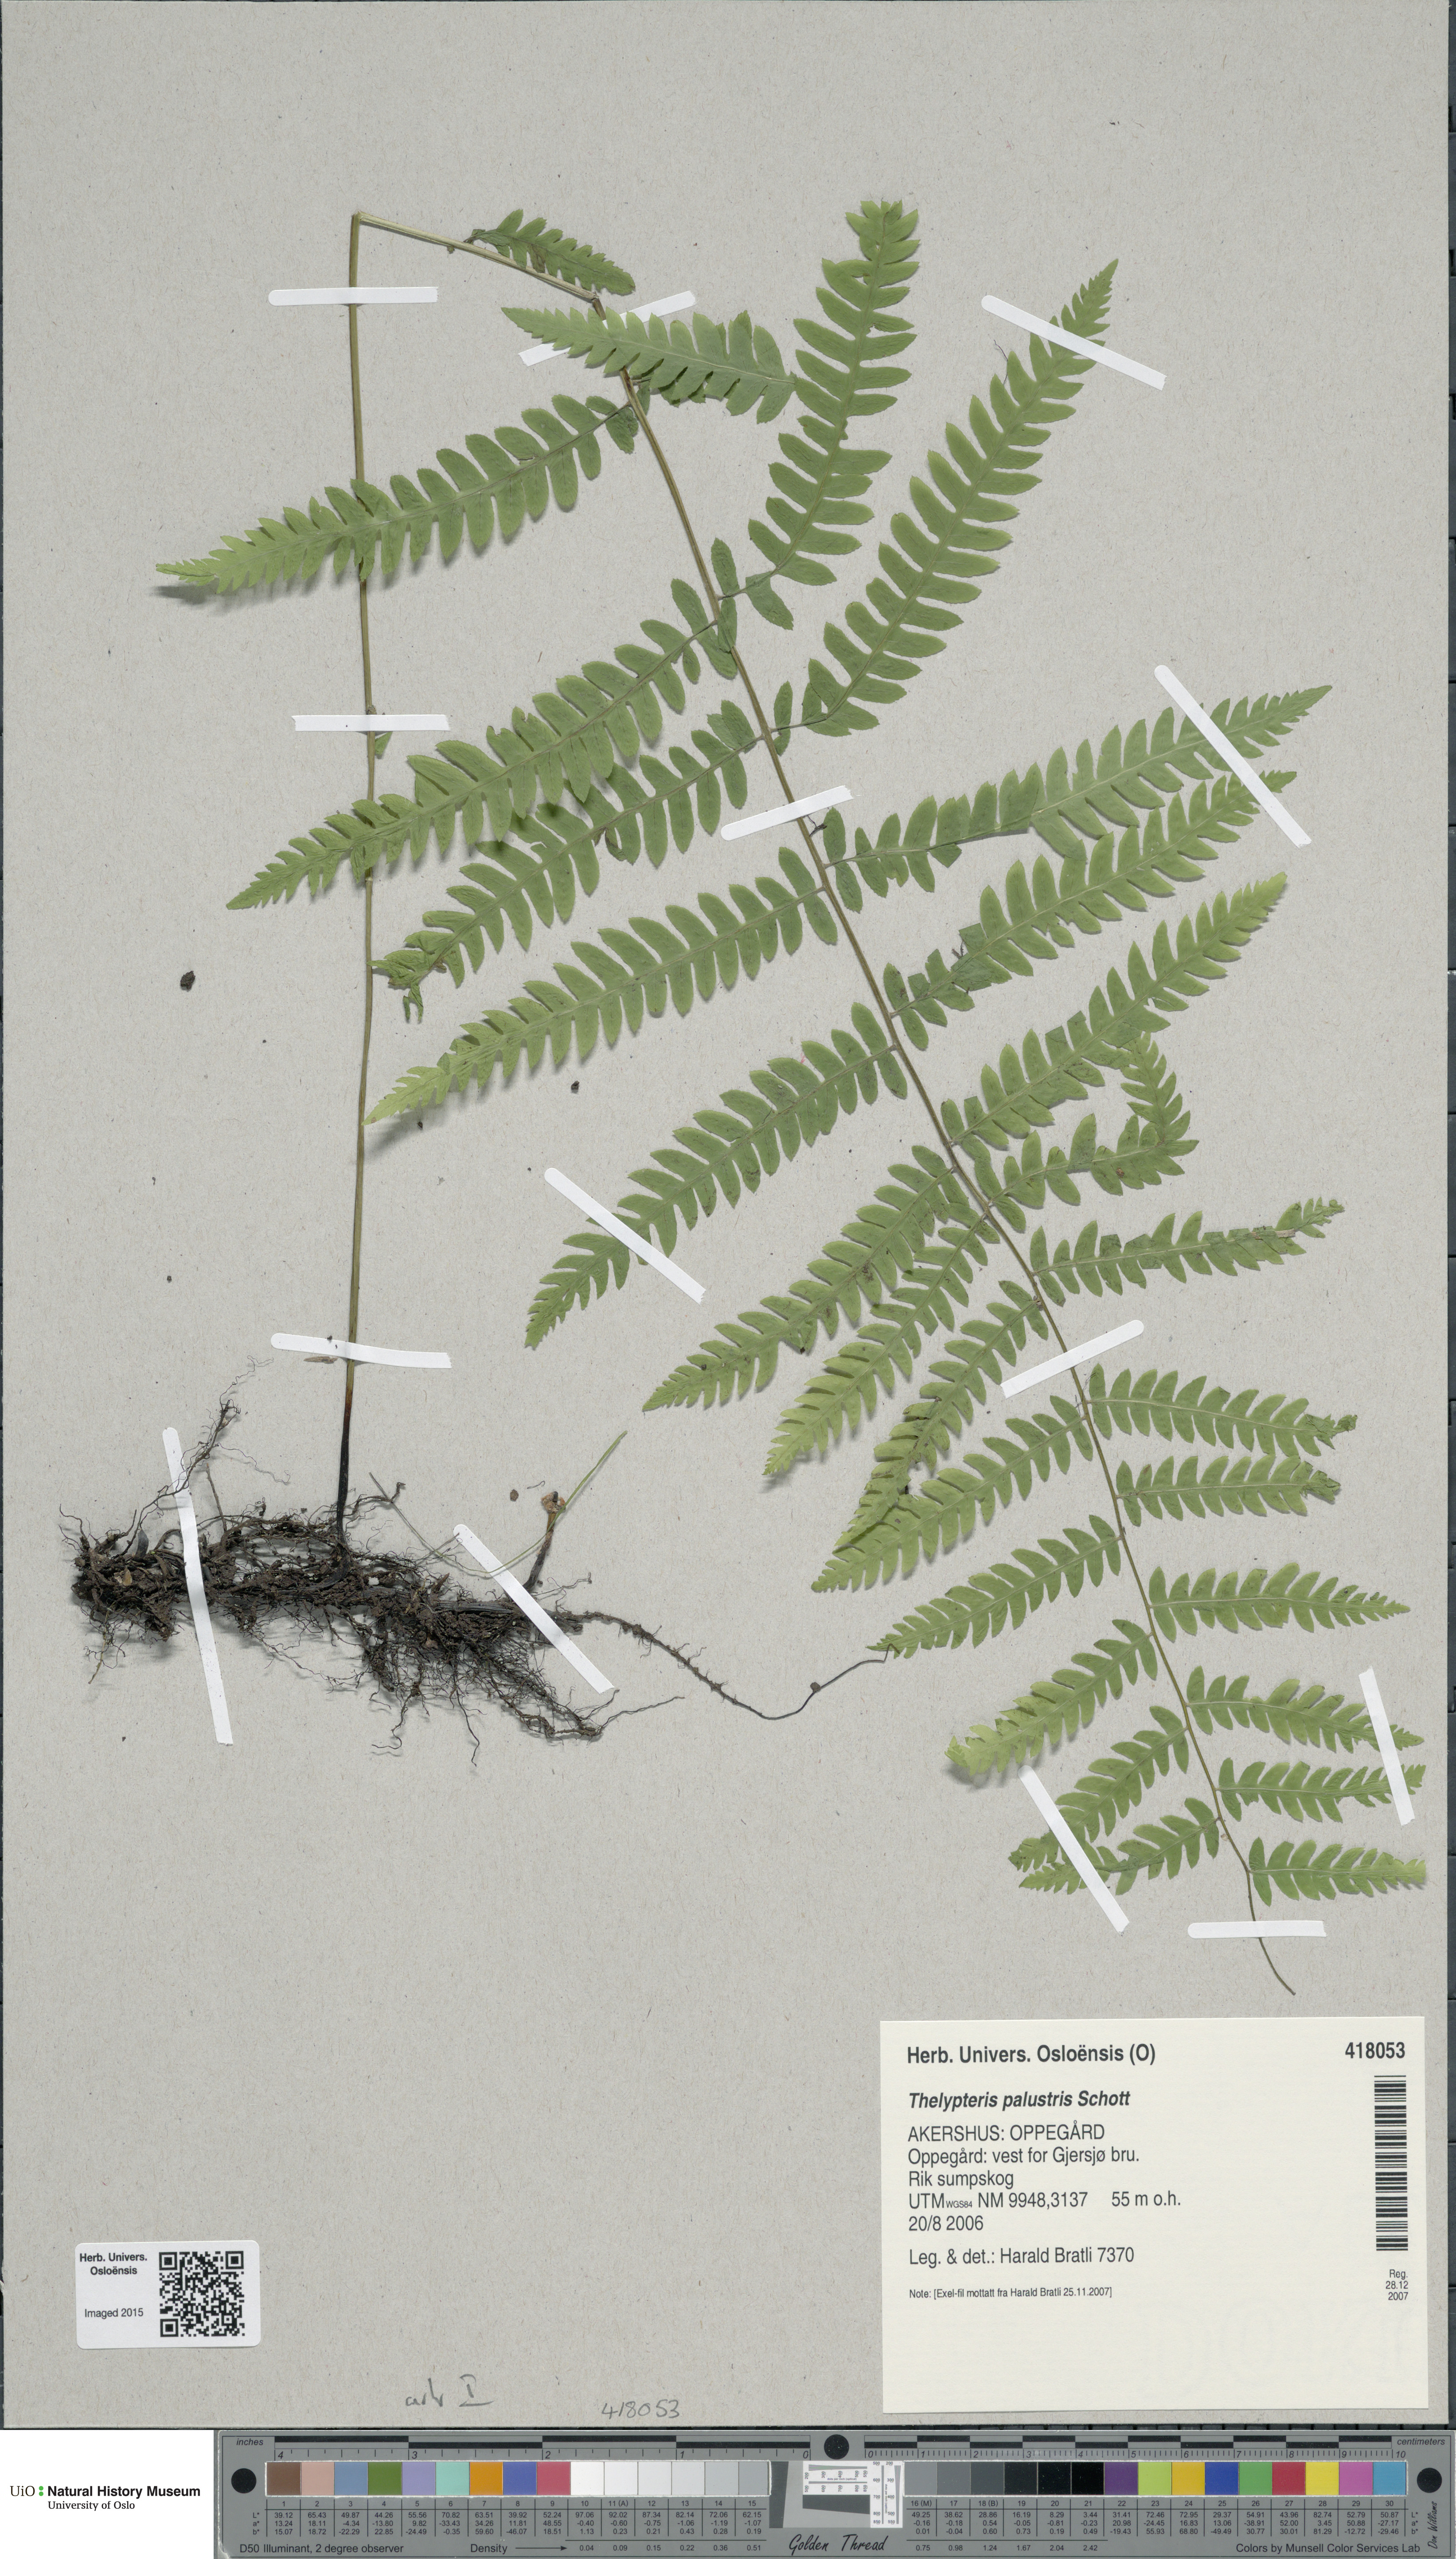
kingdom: Plantae
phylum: Tracheophyta
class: Polypodiopsida
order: Polypodiales
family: Thelypteridaceae
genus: Thelypteris
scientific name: Thelypteris palustris
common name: Marsh fern
